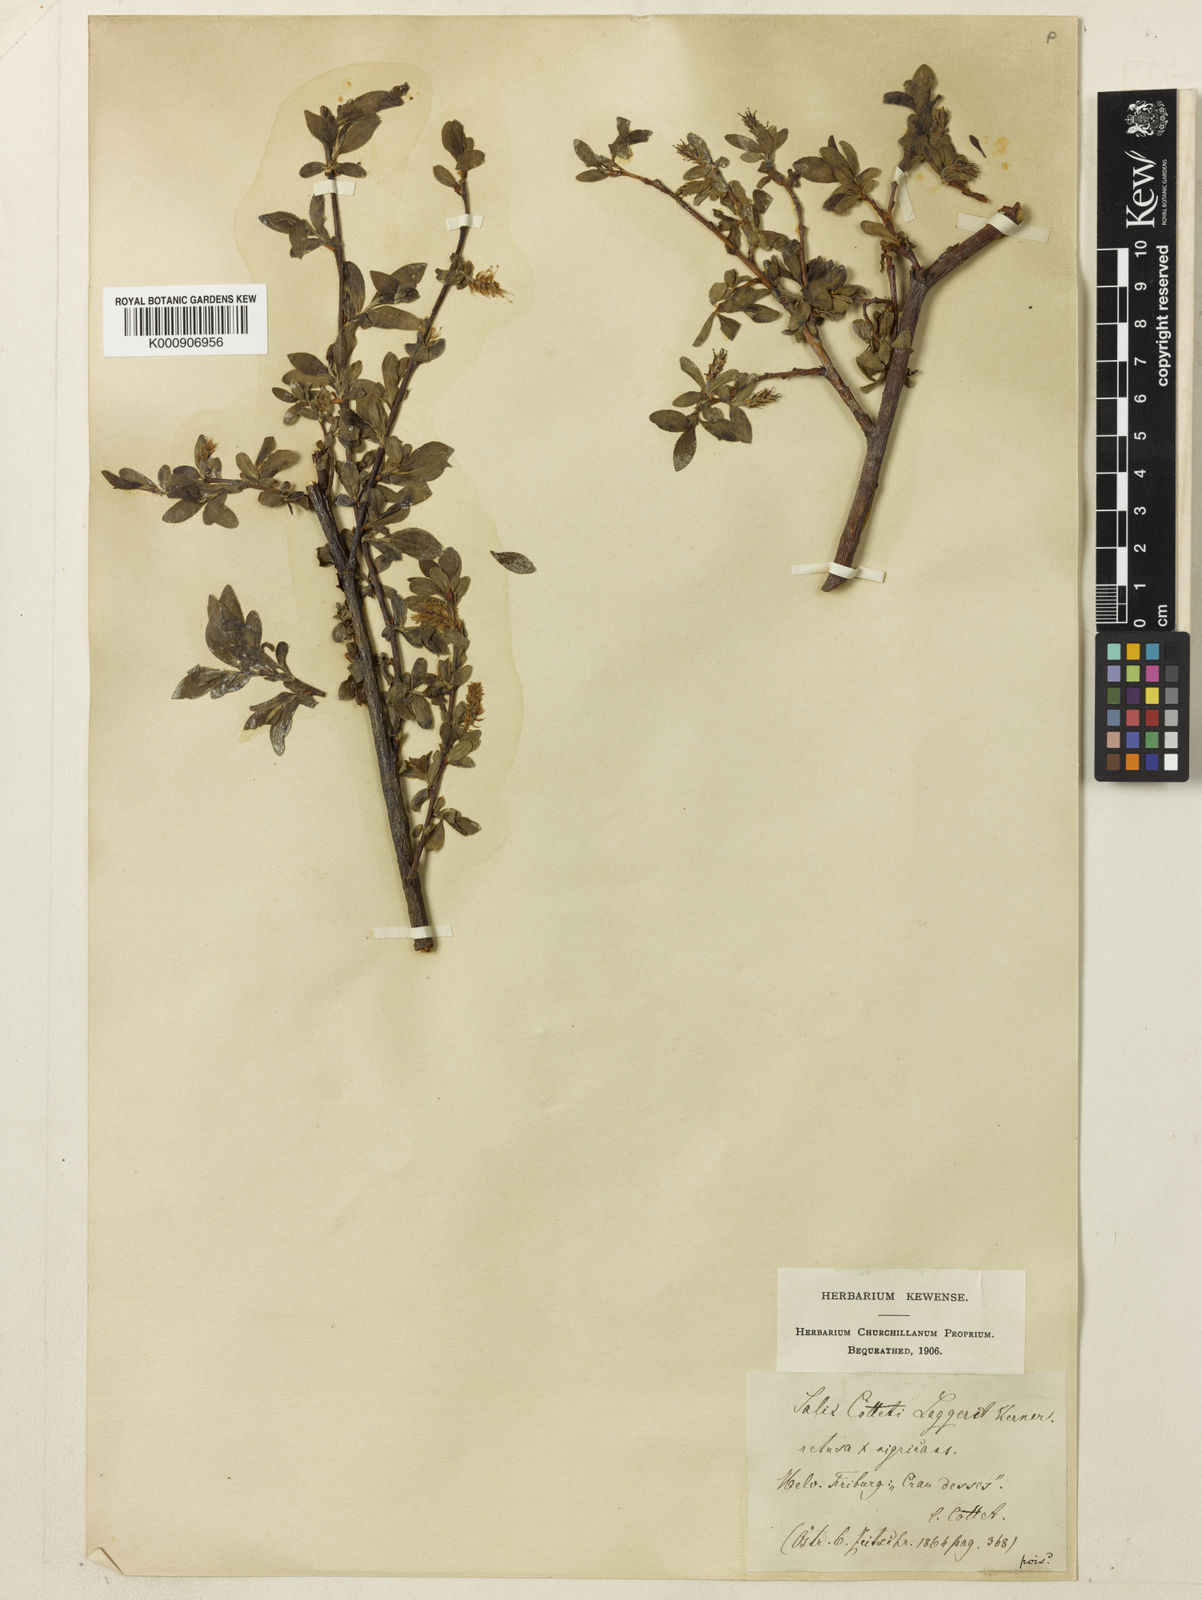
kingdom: Plantae
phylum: Tracheophyta
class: Magnoliopsida
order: Malpighiales
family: Salicaceae
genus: Salix
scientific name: Salix myrsinifolia
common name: Dark-leaved willow
